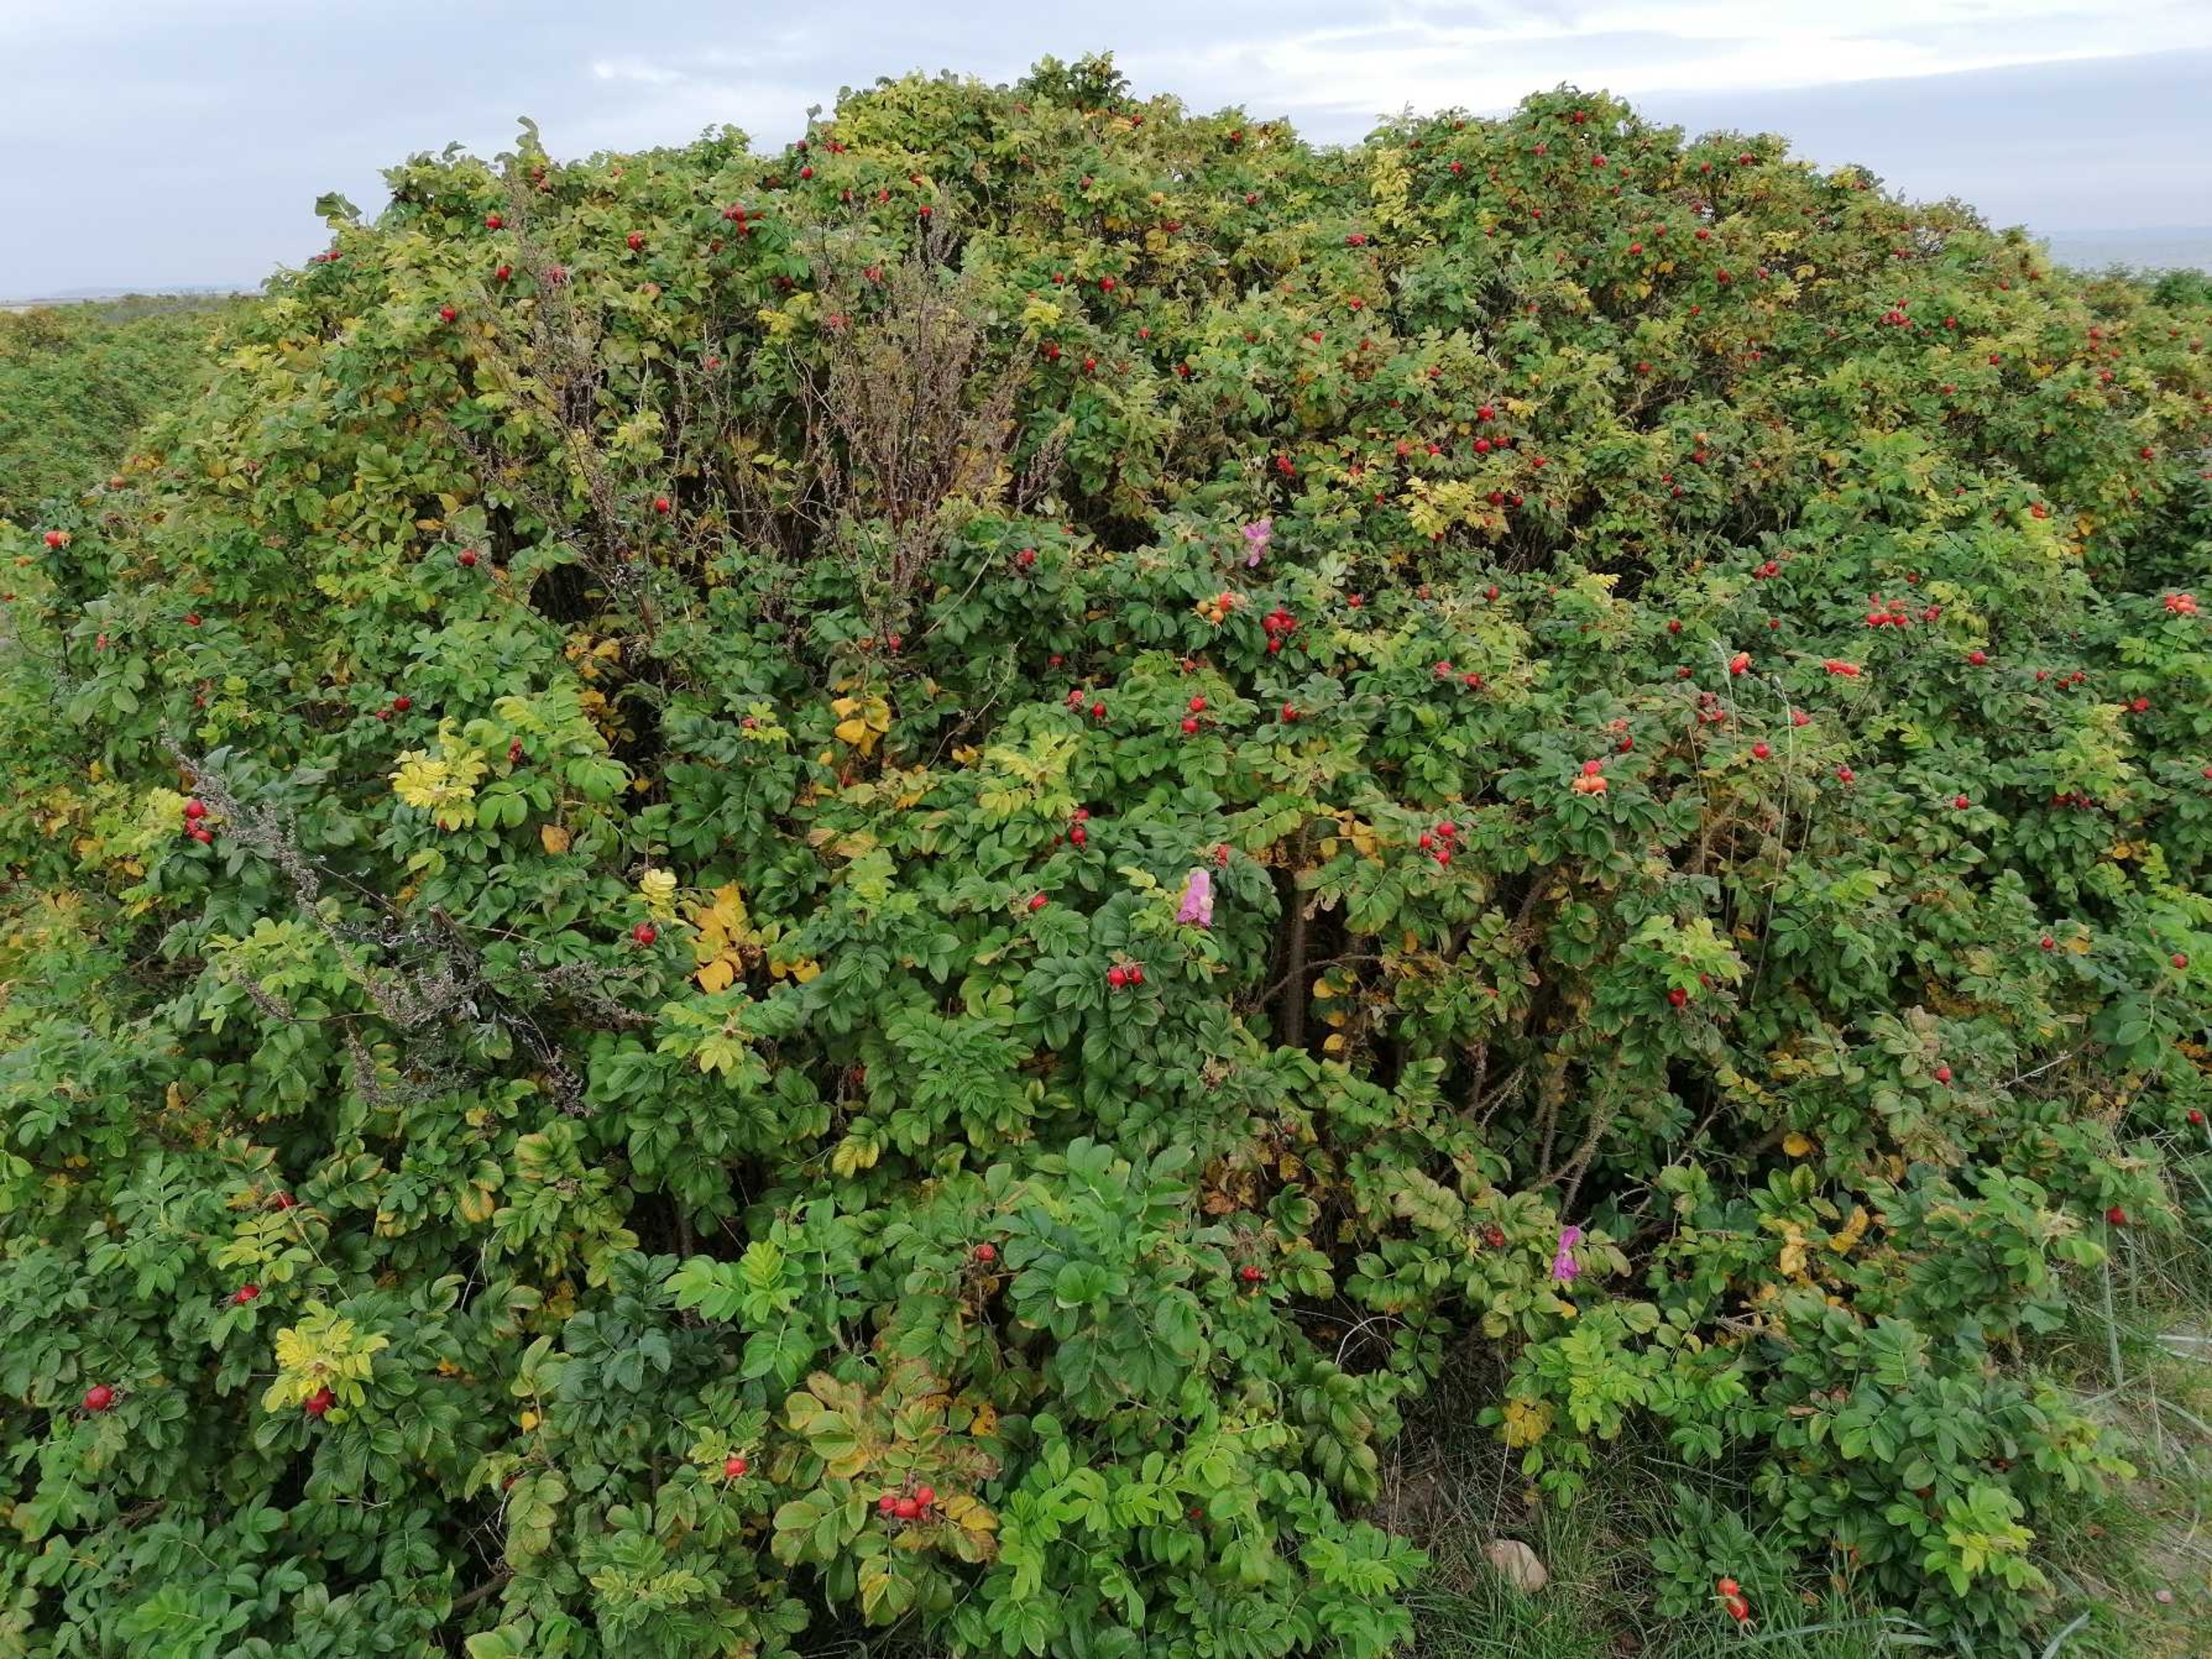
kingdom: Plantae
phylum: Tracheophyta
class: Magnoliopsida
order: Rosales
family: Rosaceae
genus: Rosa
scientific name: Rosa rugosa
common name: Rynket rose
